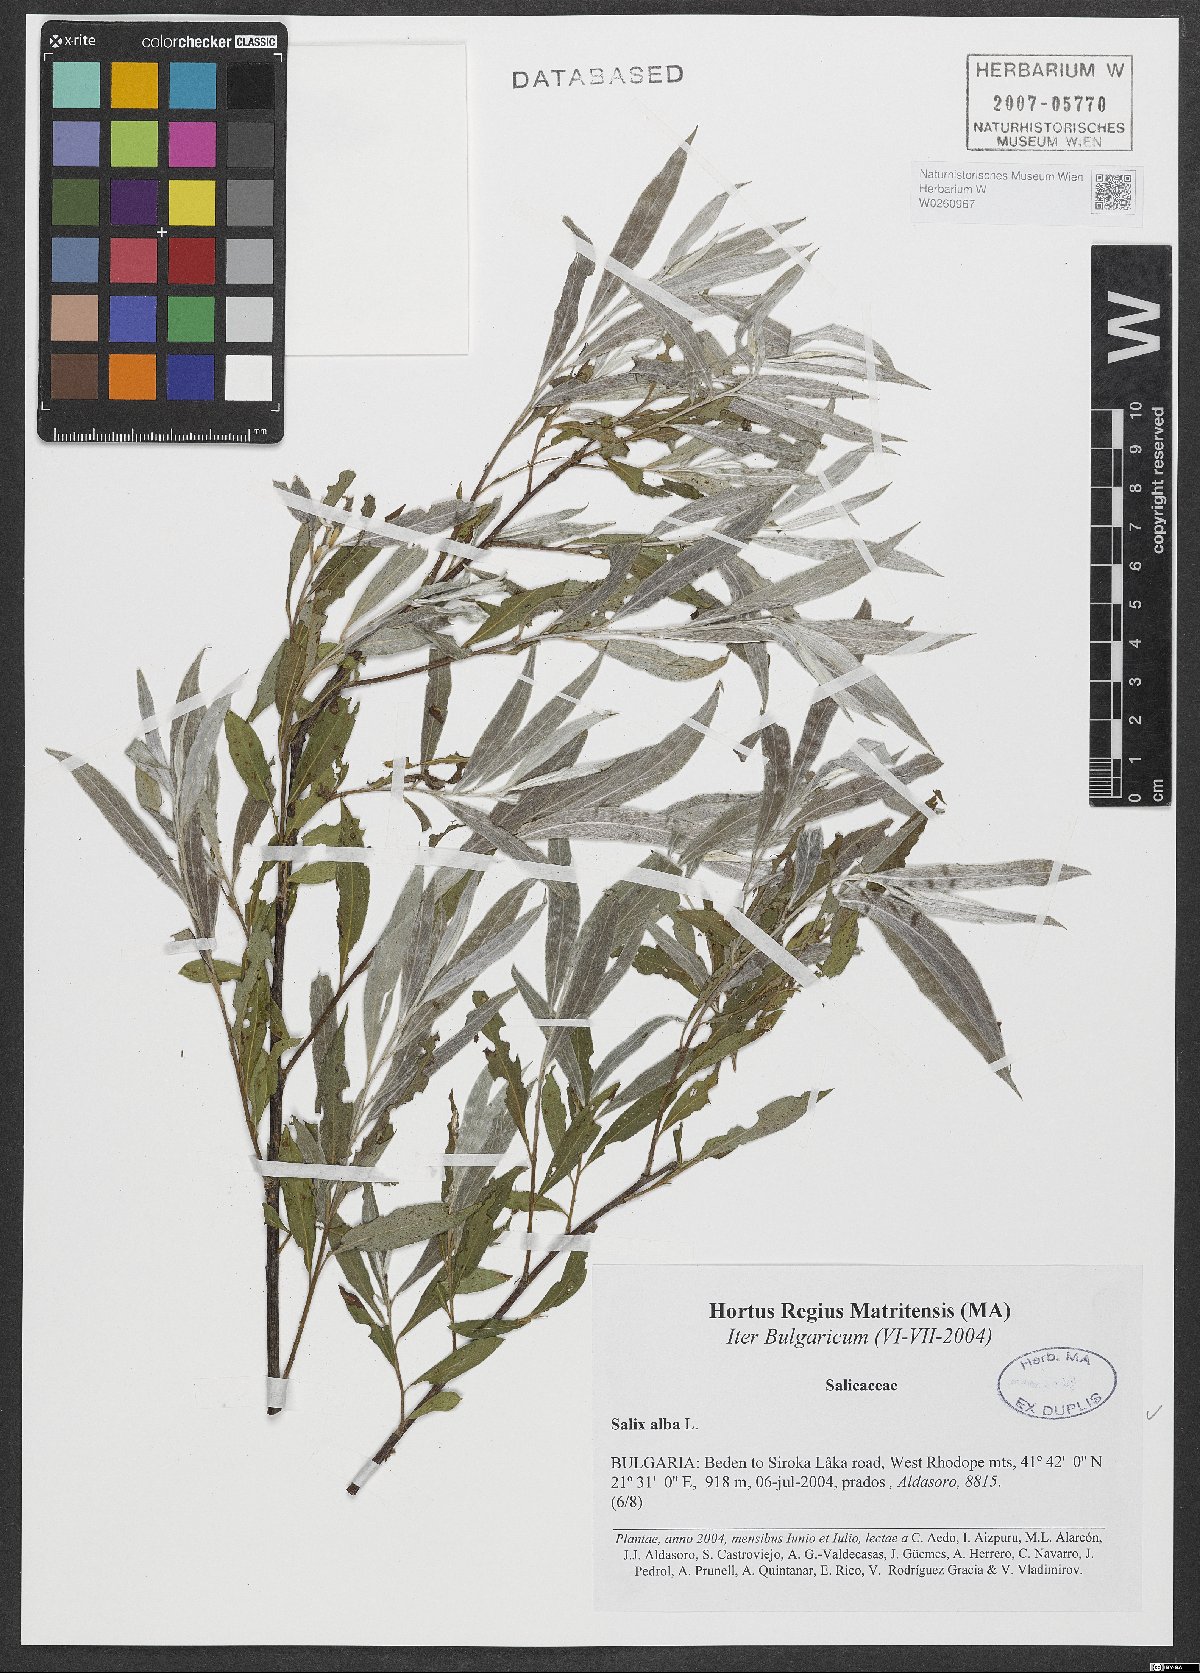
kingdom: Plantae
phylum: Tracheophyta
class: Magnoliopsida
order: Malpighiales
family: Salicaceae
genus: Salix
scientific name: Salix alba
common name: White willow
